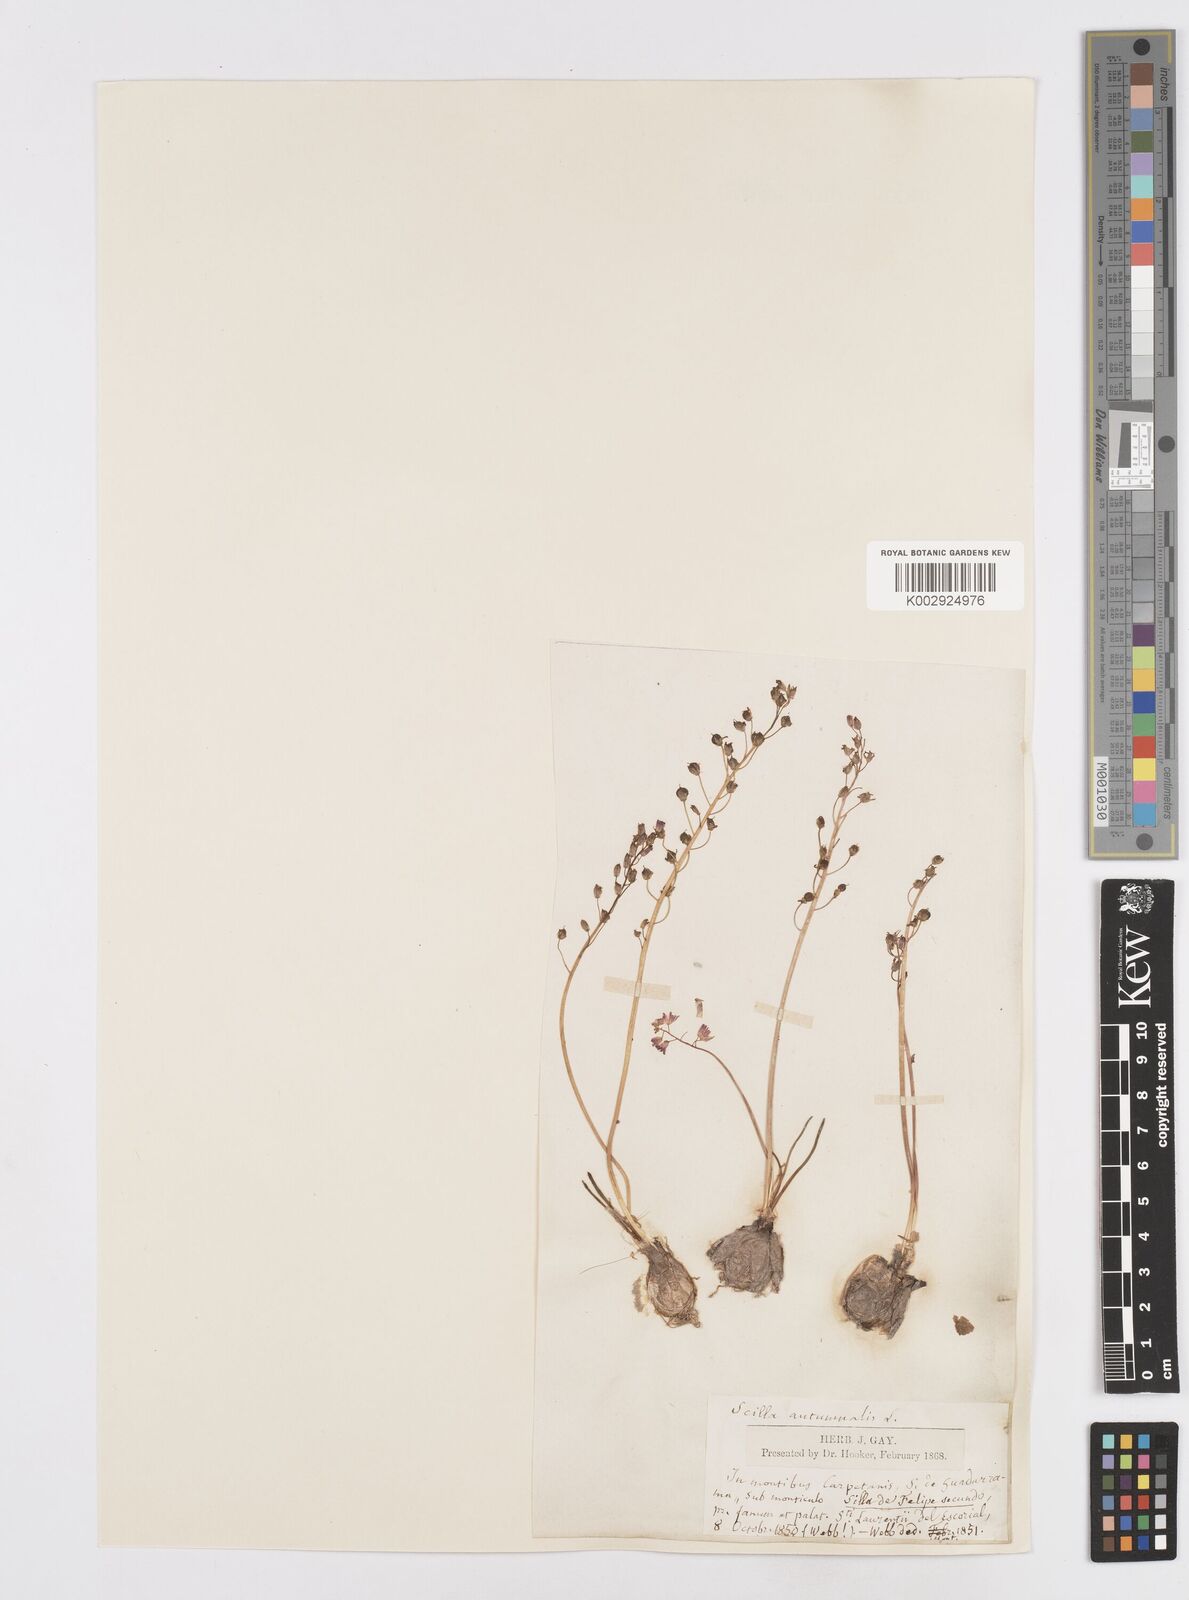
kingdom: Plantae
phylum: Tracheophyta
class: Liliopsida
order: Asparagales
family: Asparagaceae
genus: Prospero
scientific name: Prospero autumnale
